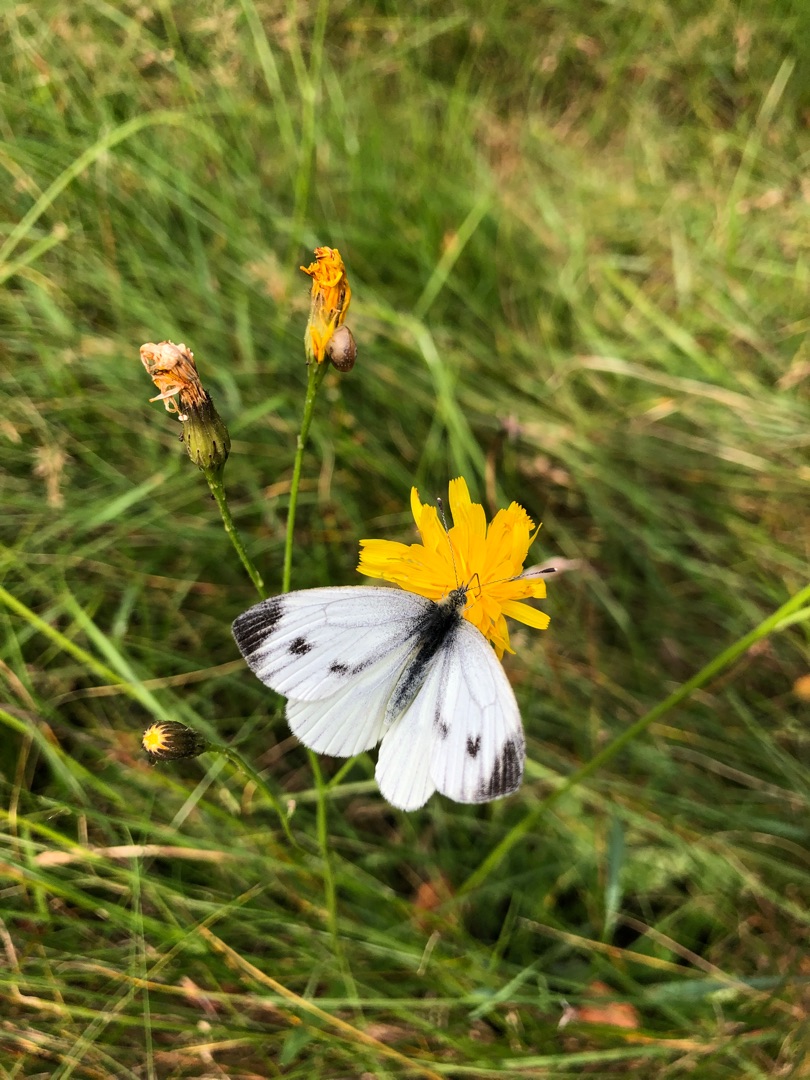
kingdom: Animalia
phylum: Arthropoda
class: Insecta
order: Lepidoptera
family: Pieridae
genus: Pieris
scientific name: Pieris napi
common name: Grønåret kålsommerfugl
